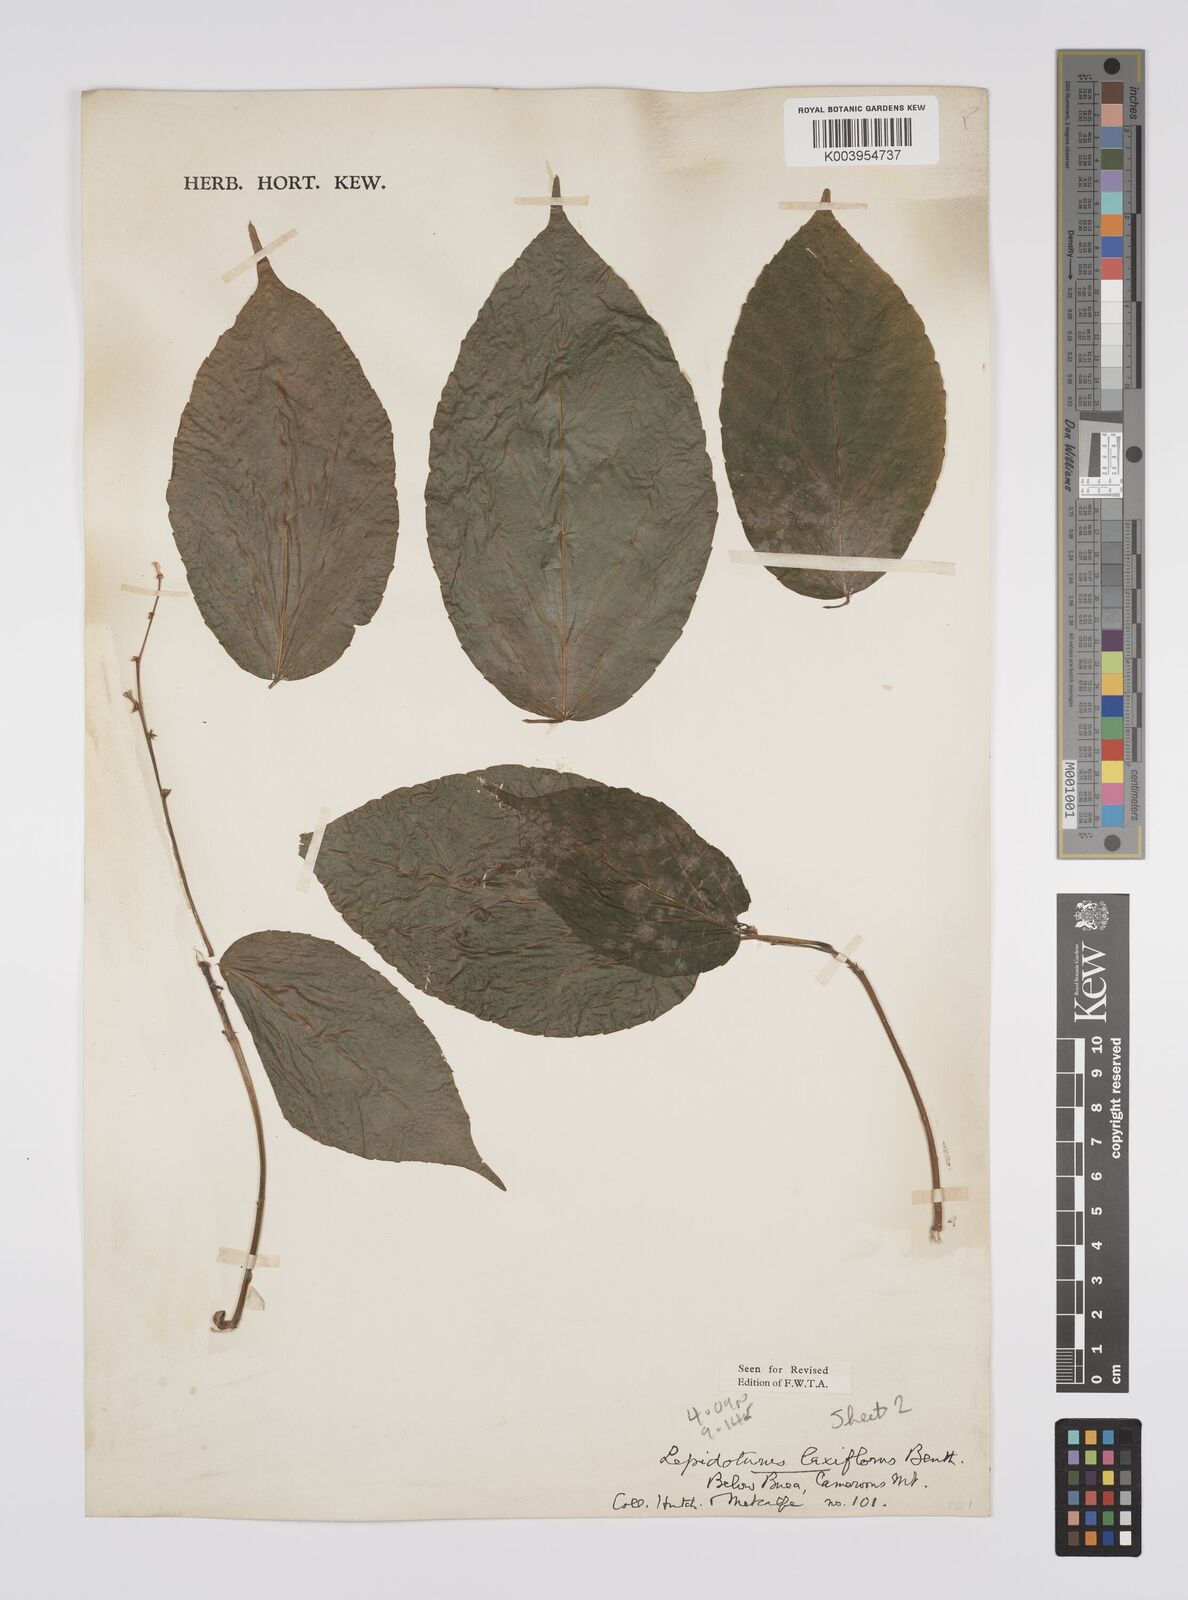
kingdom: Plantae
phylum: Tracheophyta
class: Magnoliopsida
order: Malpighiales
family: Euphorbiaceae
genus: Alchornea
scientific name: Alchornea laxiflora
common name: Lowveld bead-string
